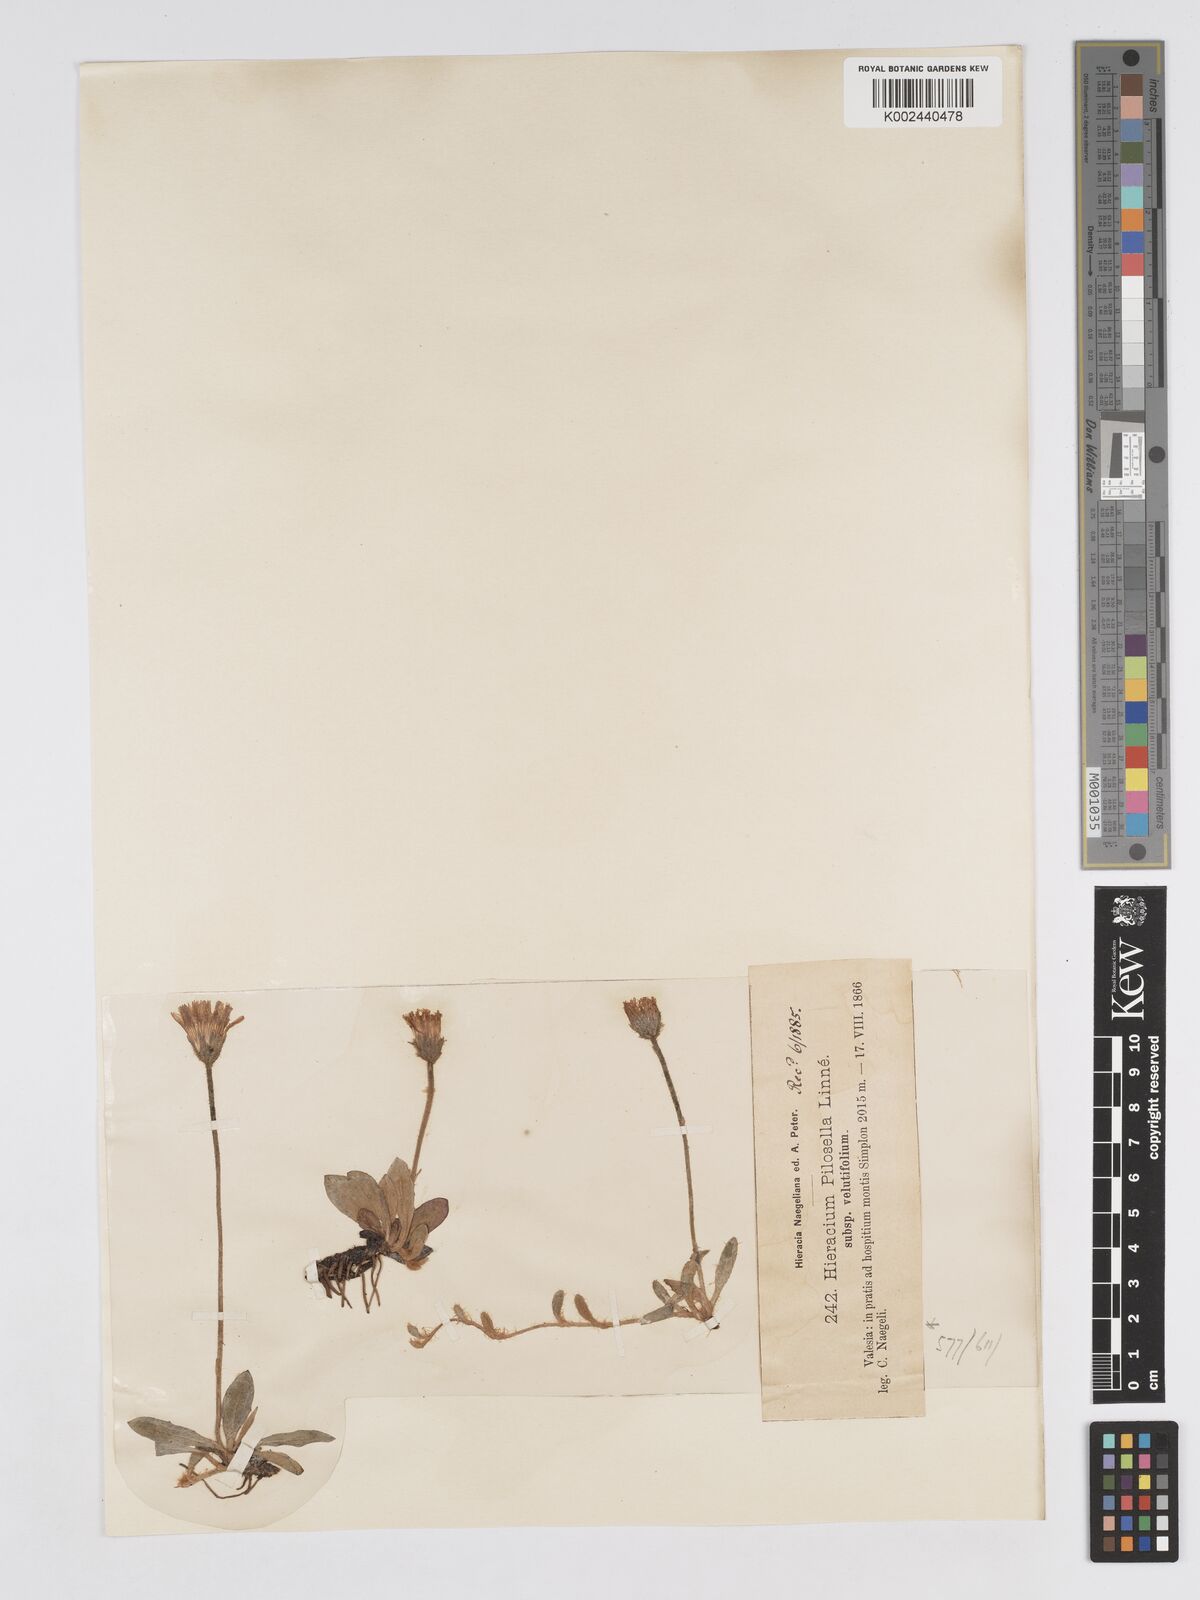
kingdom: Plantae
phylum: Tracheophyta
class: Magnoliopsida
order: Asterales
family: Asteraceae
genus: Pilosella
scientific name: Pilosella velutina
